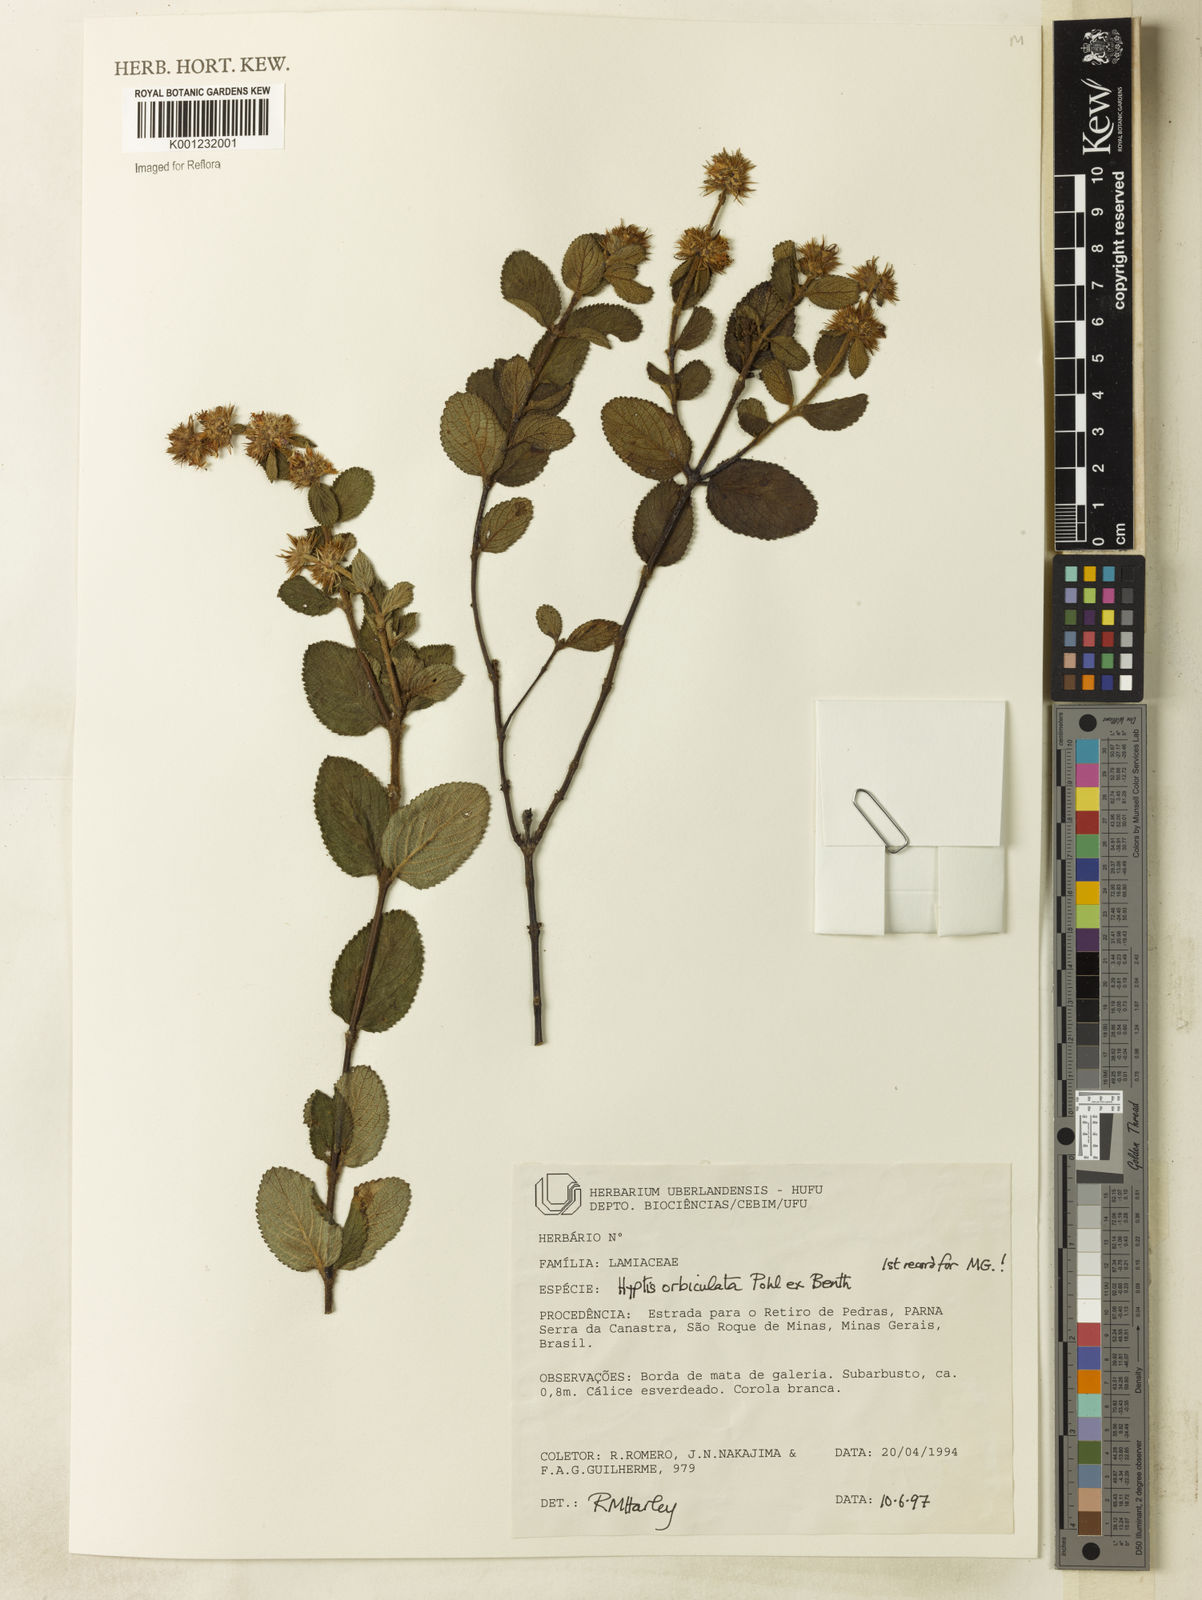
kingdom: Plantae
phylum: Tracheophyta
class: Magnoliopsida
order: Lamiales
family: Lamiaceae
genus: Hyptis
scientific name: Hyptis orbiculata
